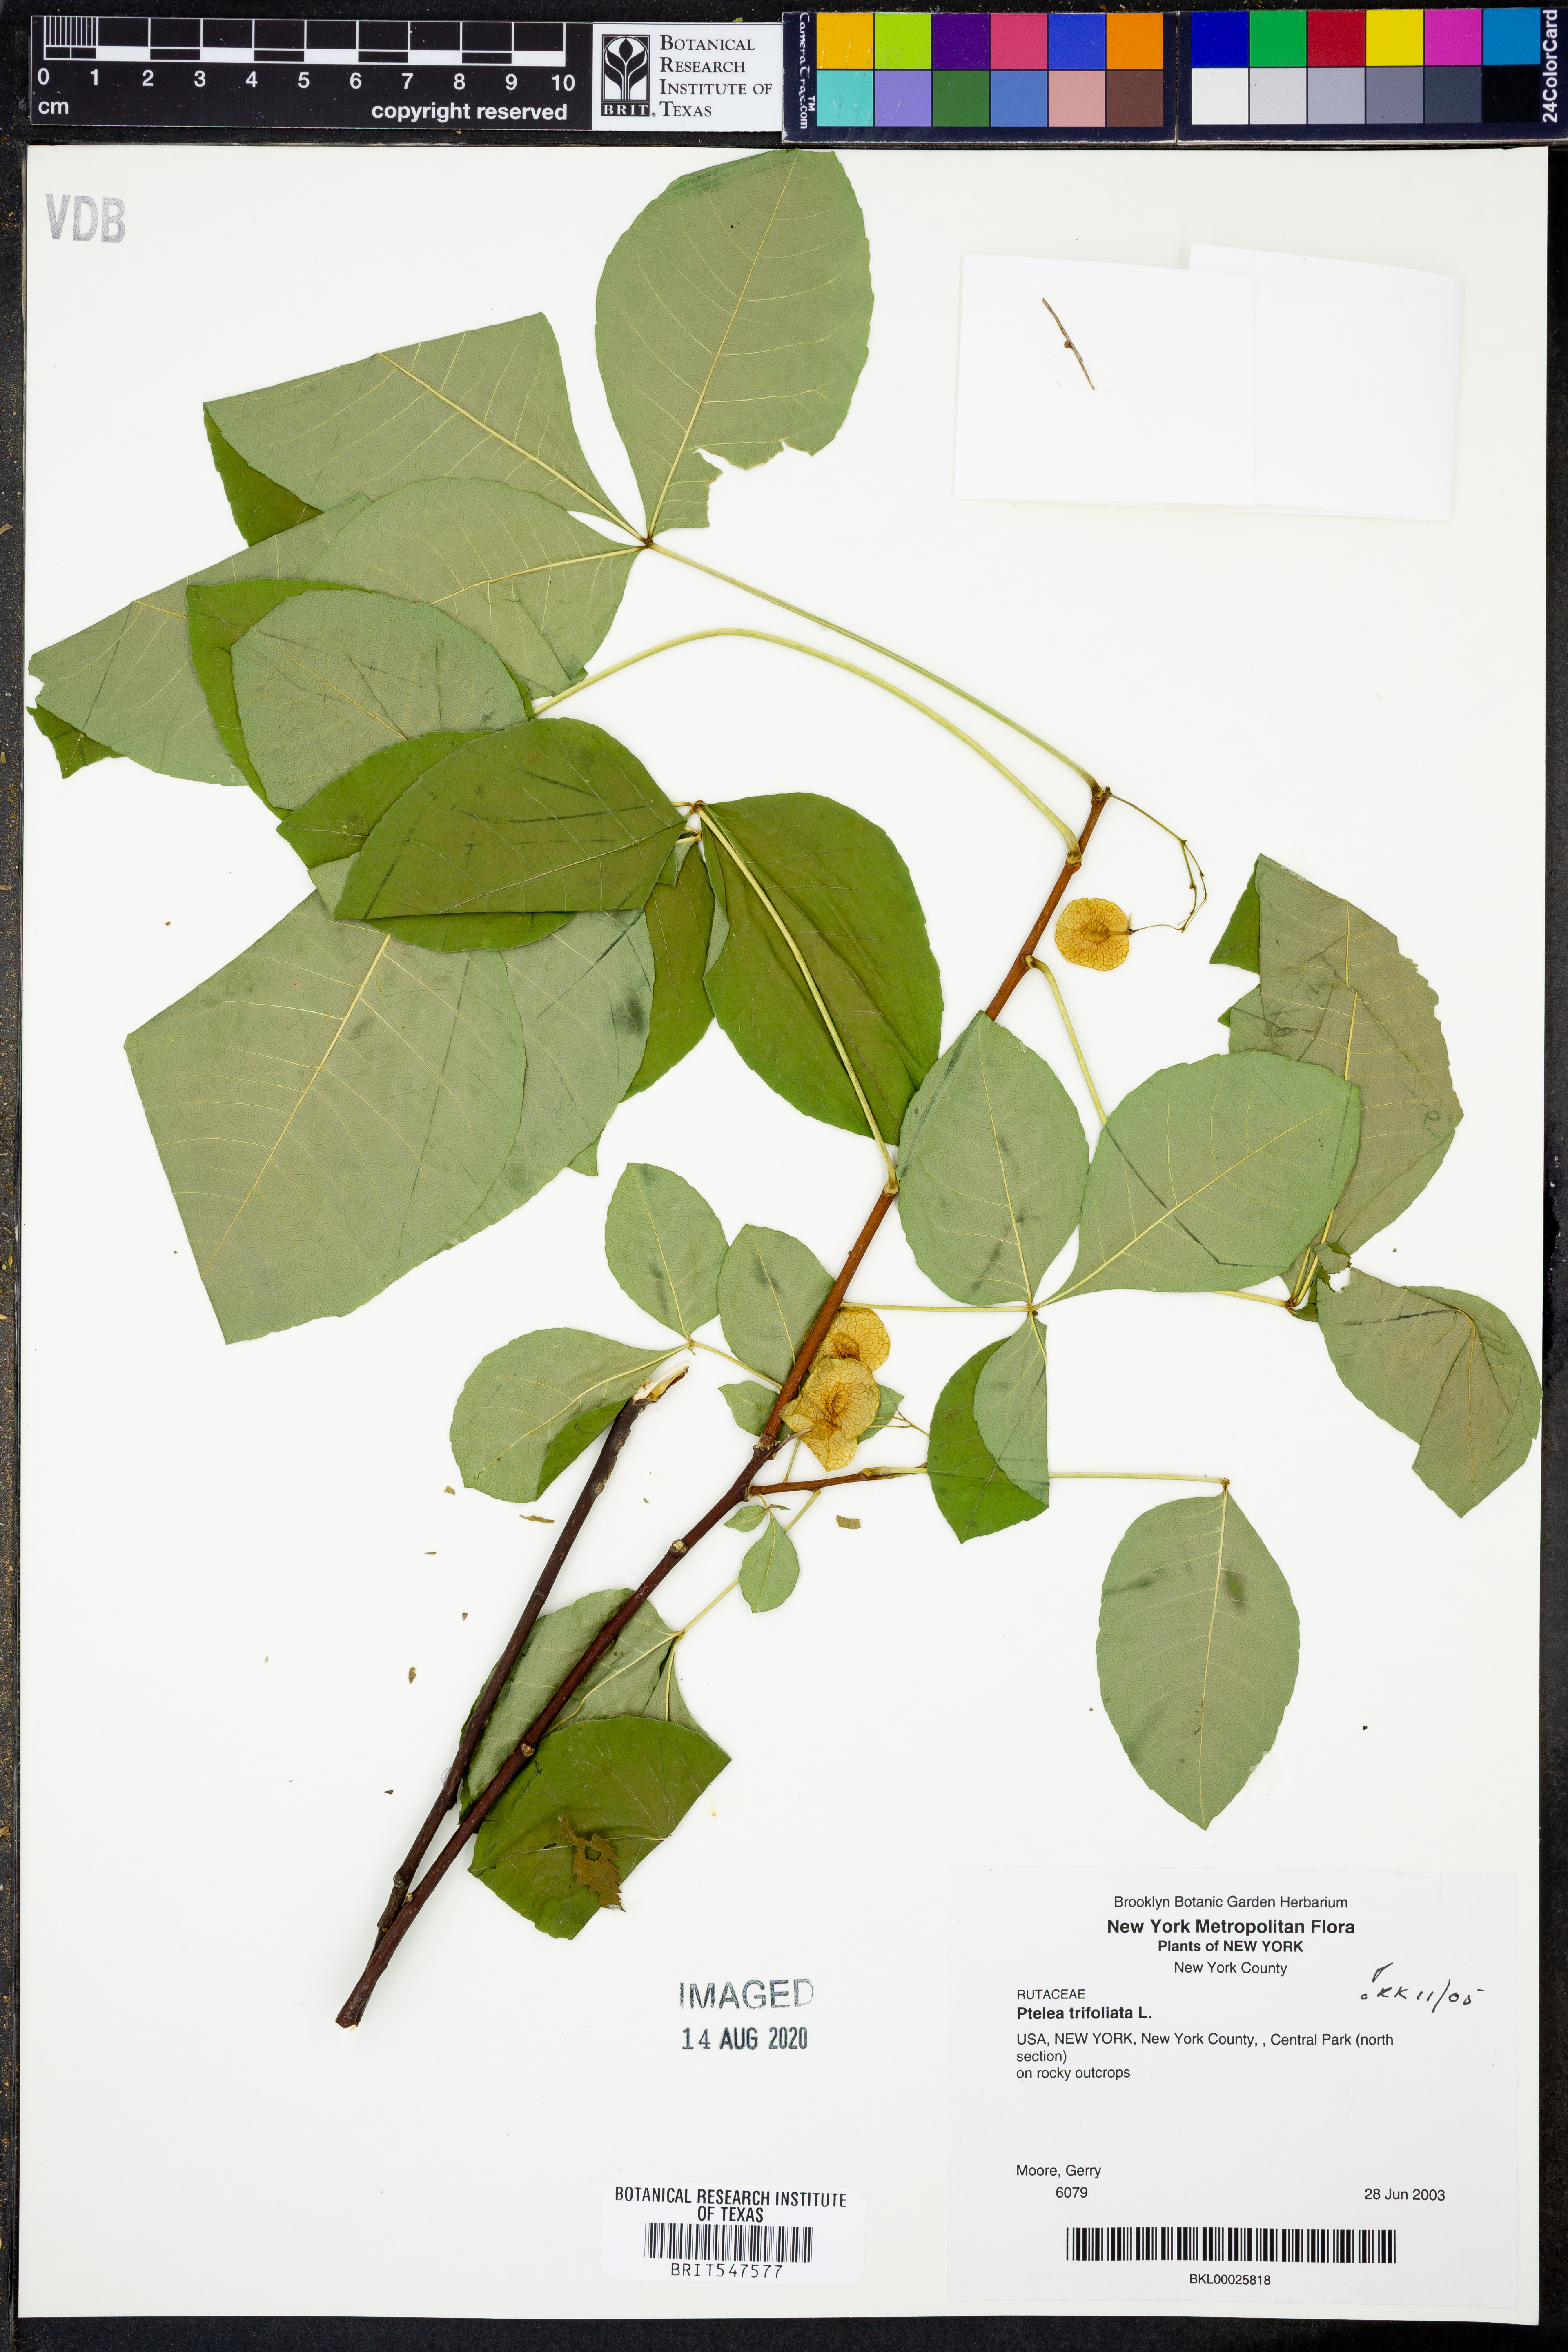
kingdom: Plantae
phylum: Tracheophyta
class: Magnoliopsida
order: Sapindales
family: Rutaceae
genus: Ptelea
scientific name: Ptelea trifoliata
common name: Common hop-tree
